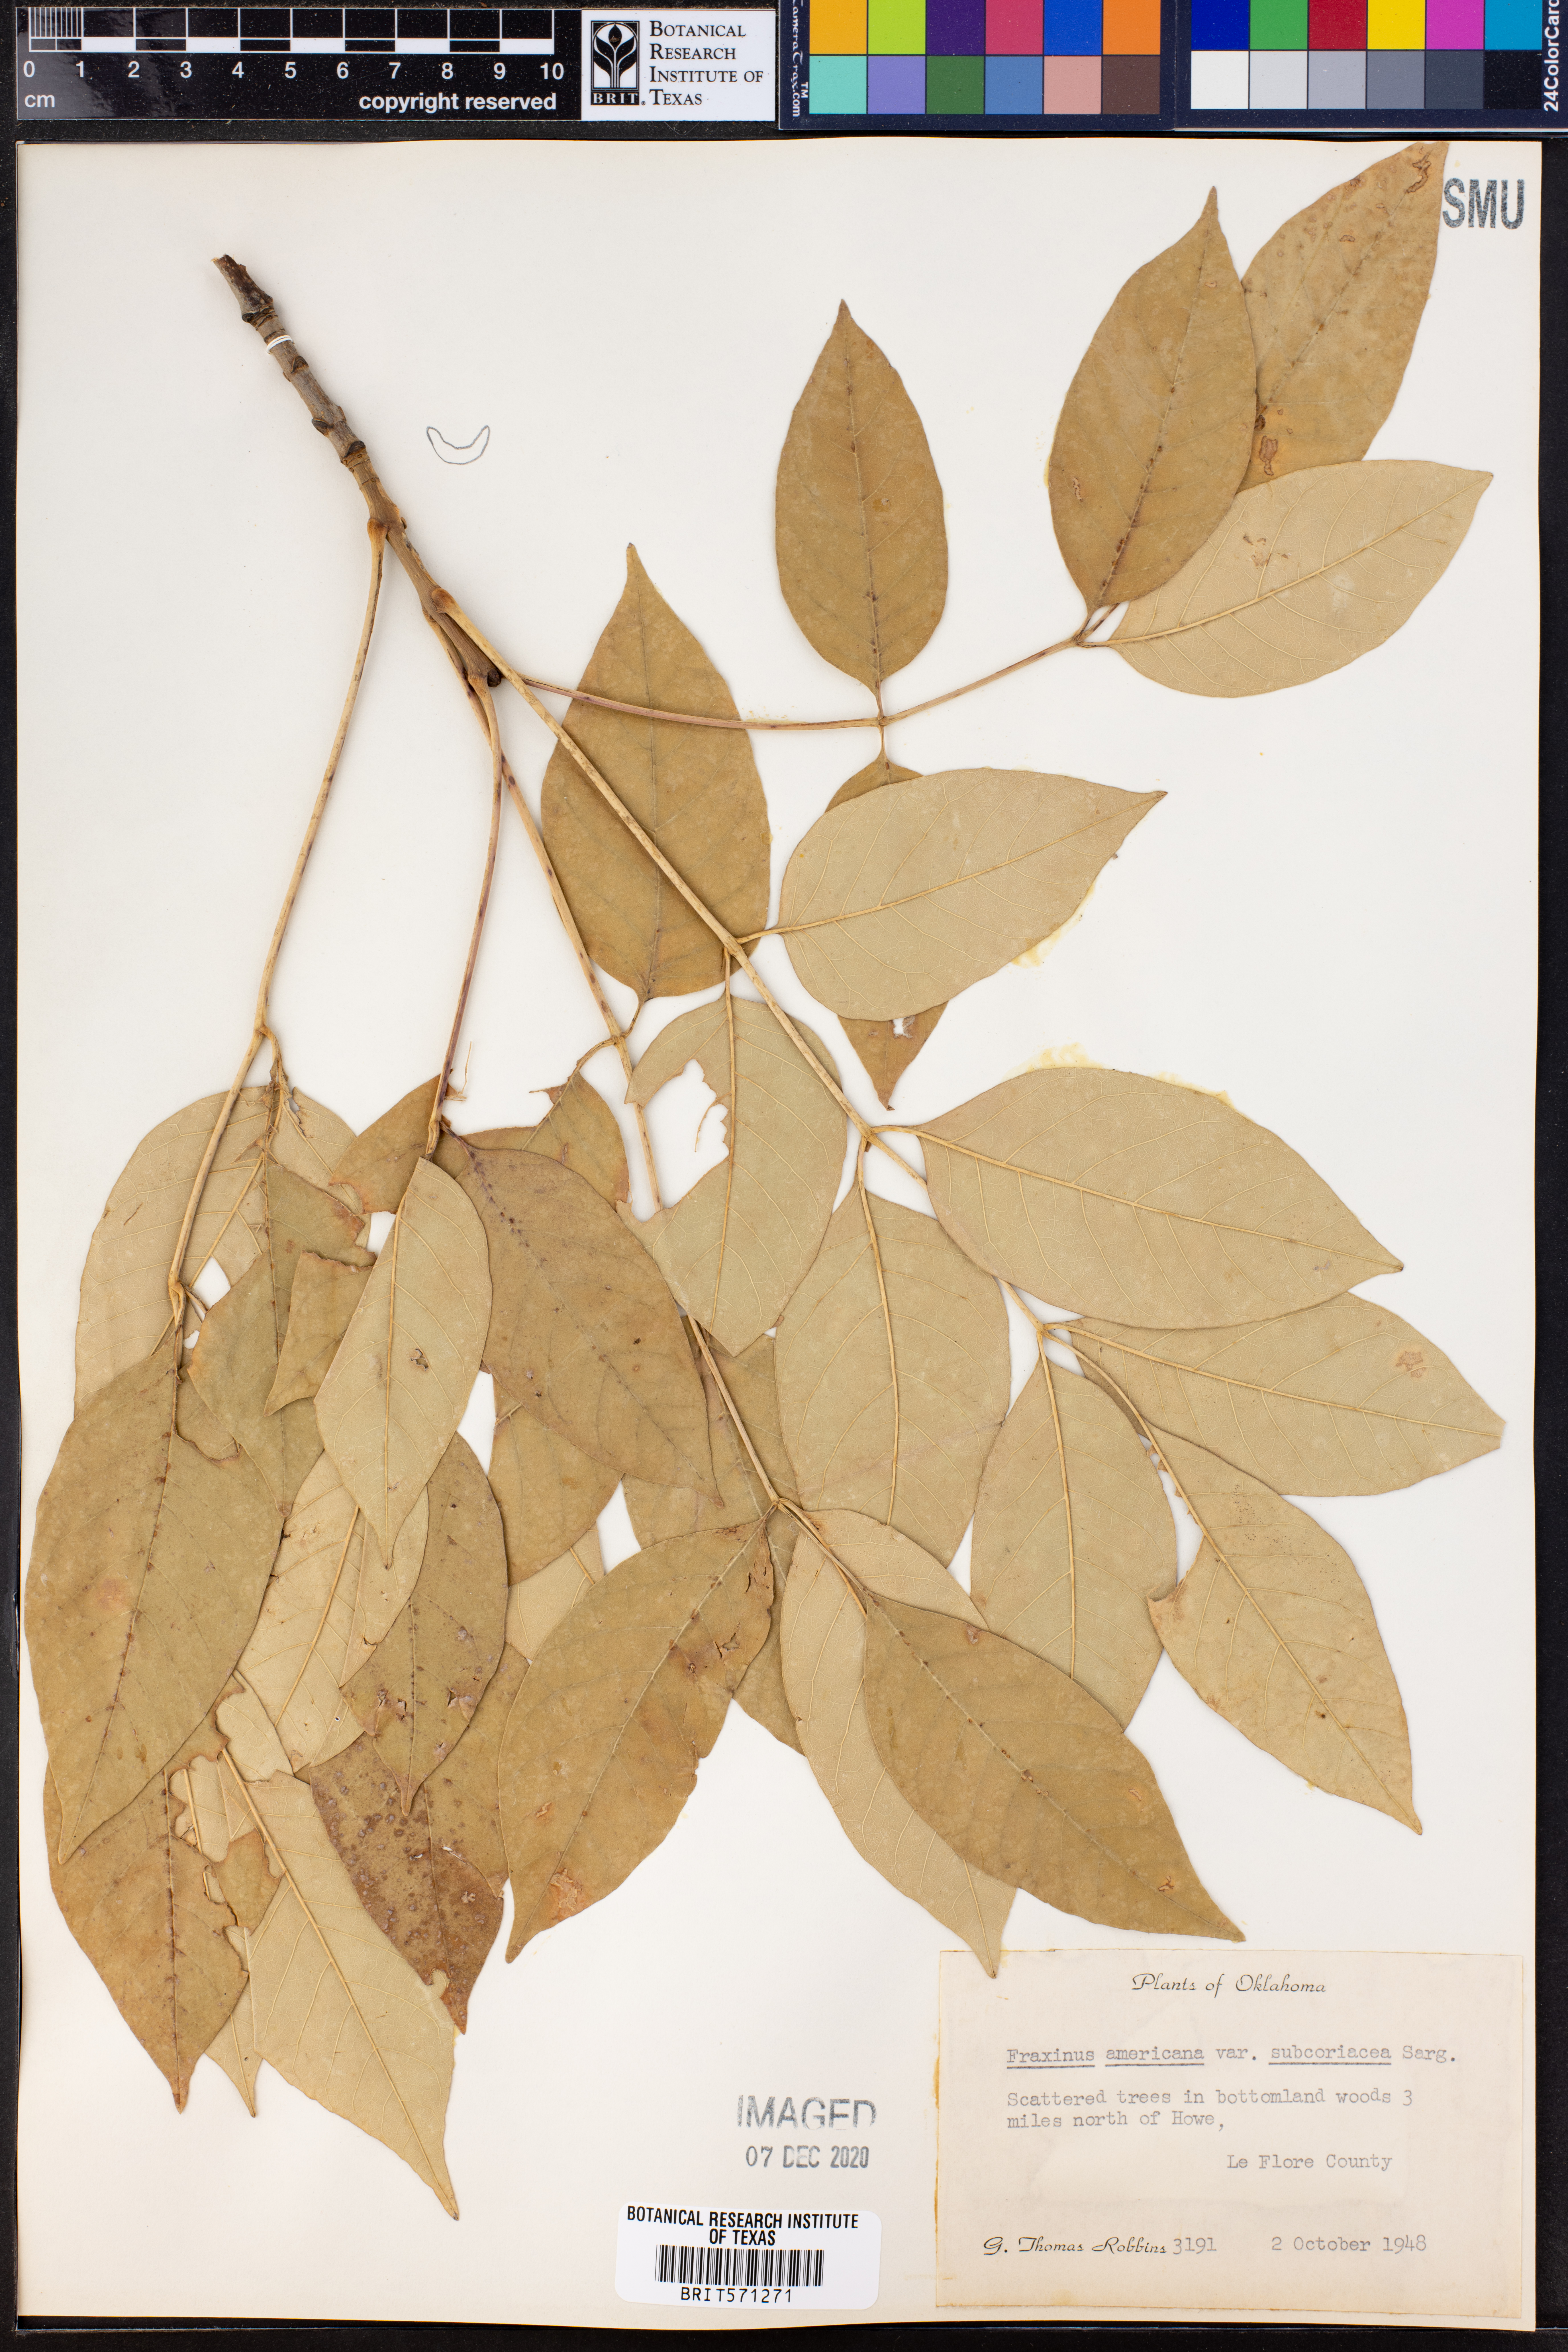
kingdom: Plantae
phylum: Tracheophyta
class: Magnoliopsida
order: Lamiales
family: Oleaceae
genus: Fraxinus
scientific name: Fraxinus americana
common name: White ash
